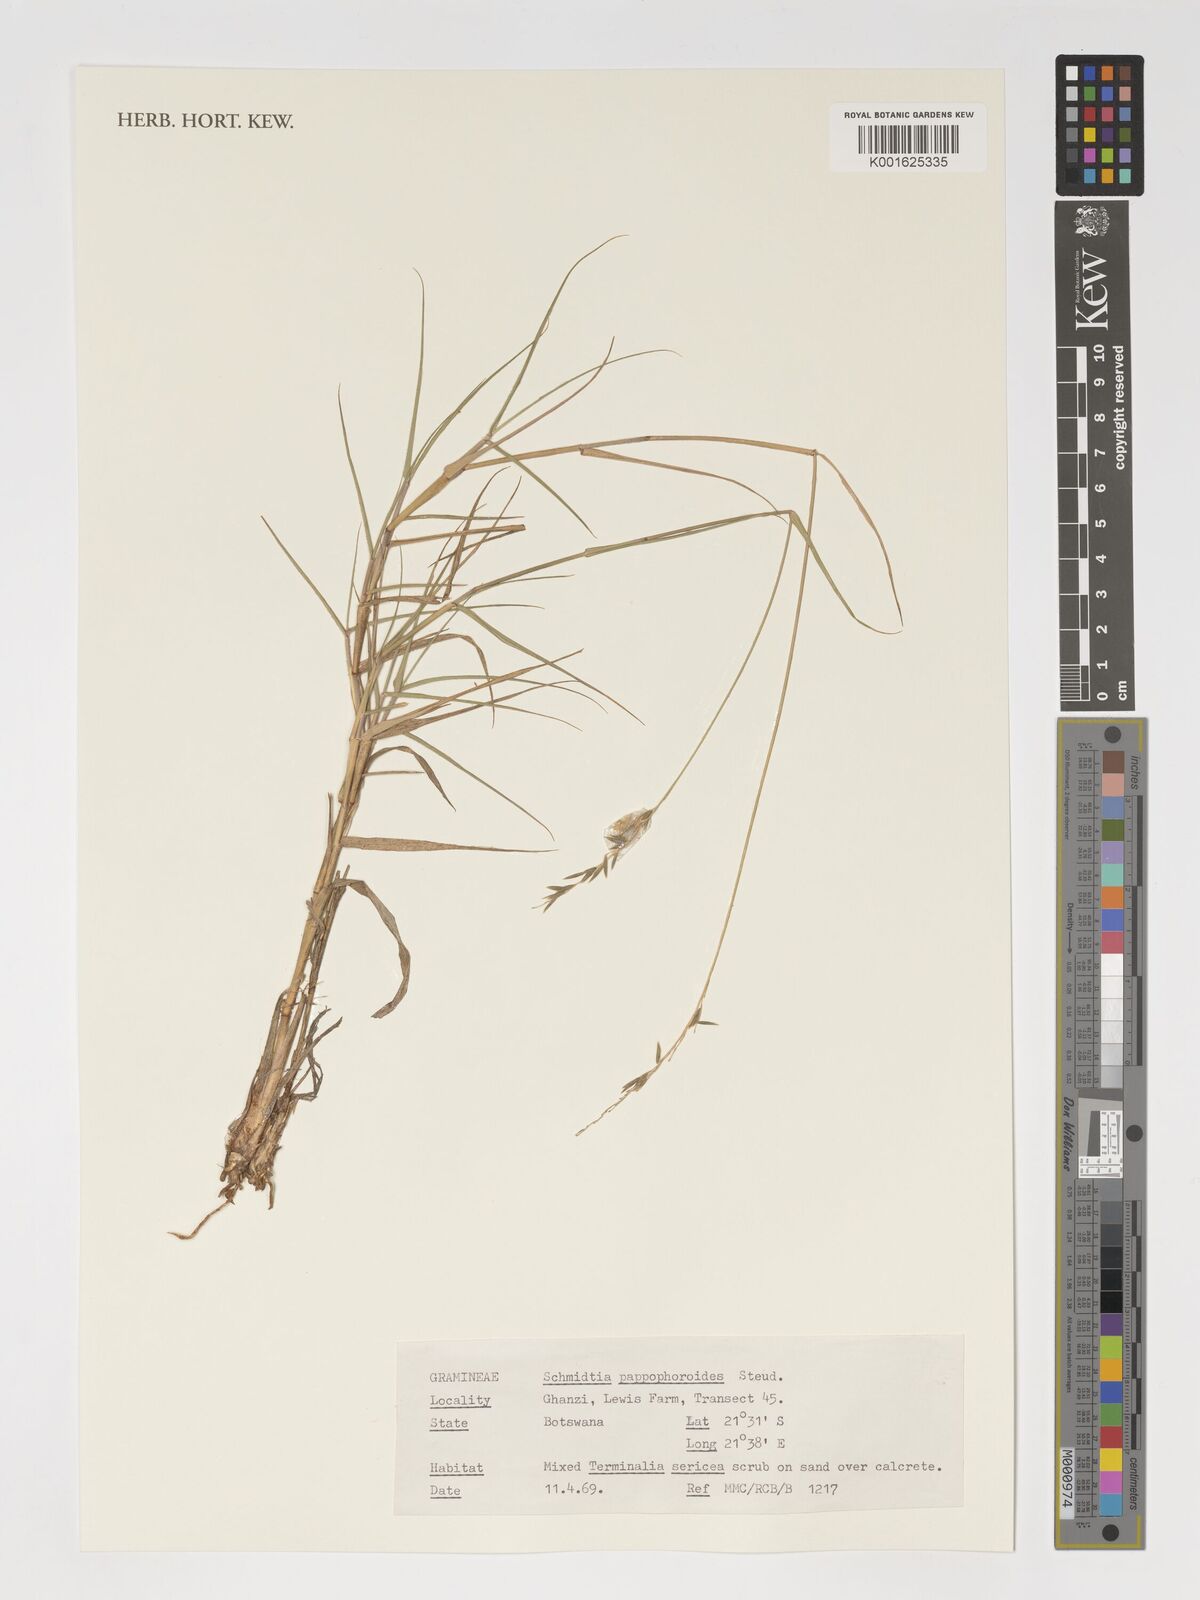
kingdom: Plantae
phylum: Tracheophyta
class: Liliopsida
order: Poales
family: Poaceae
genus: Schmidtia
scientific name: Schmidtia pappophoroides
